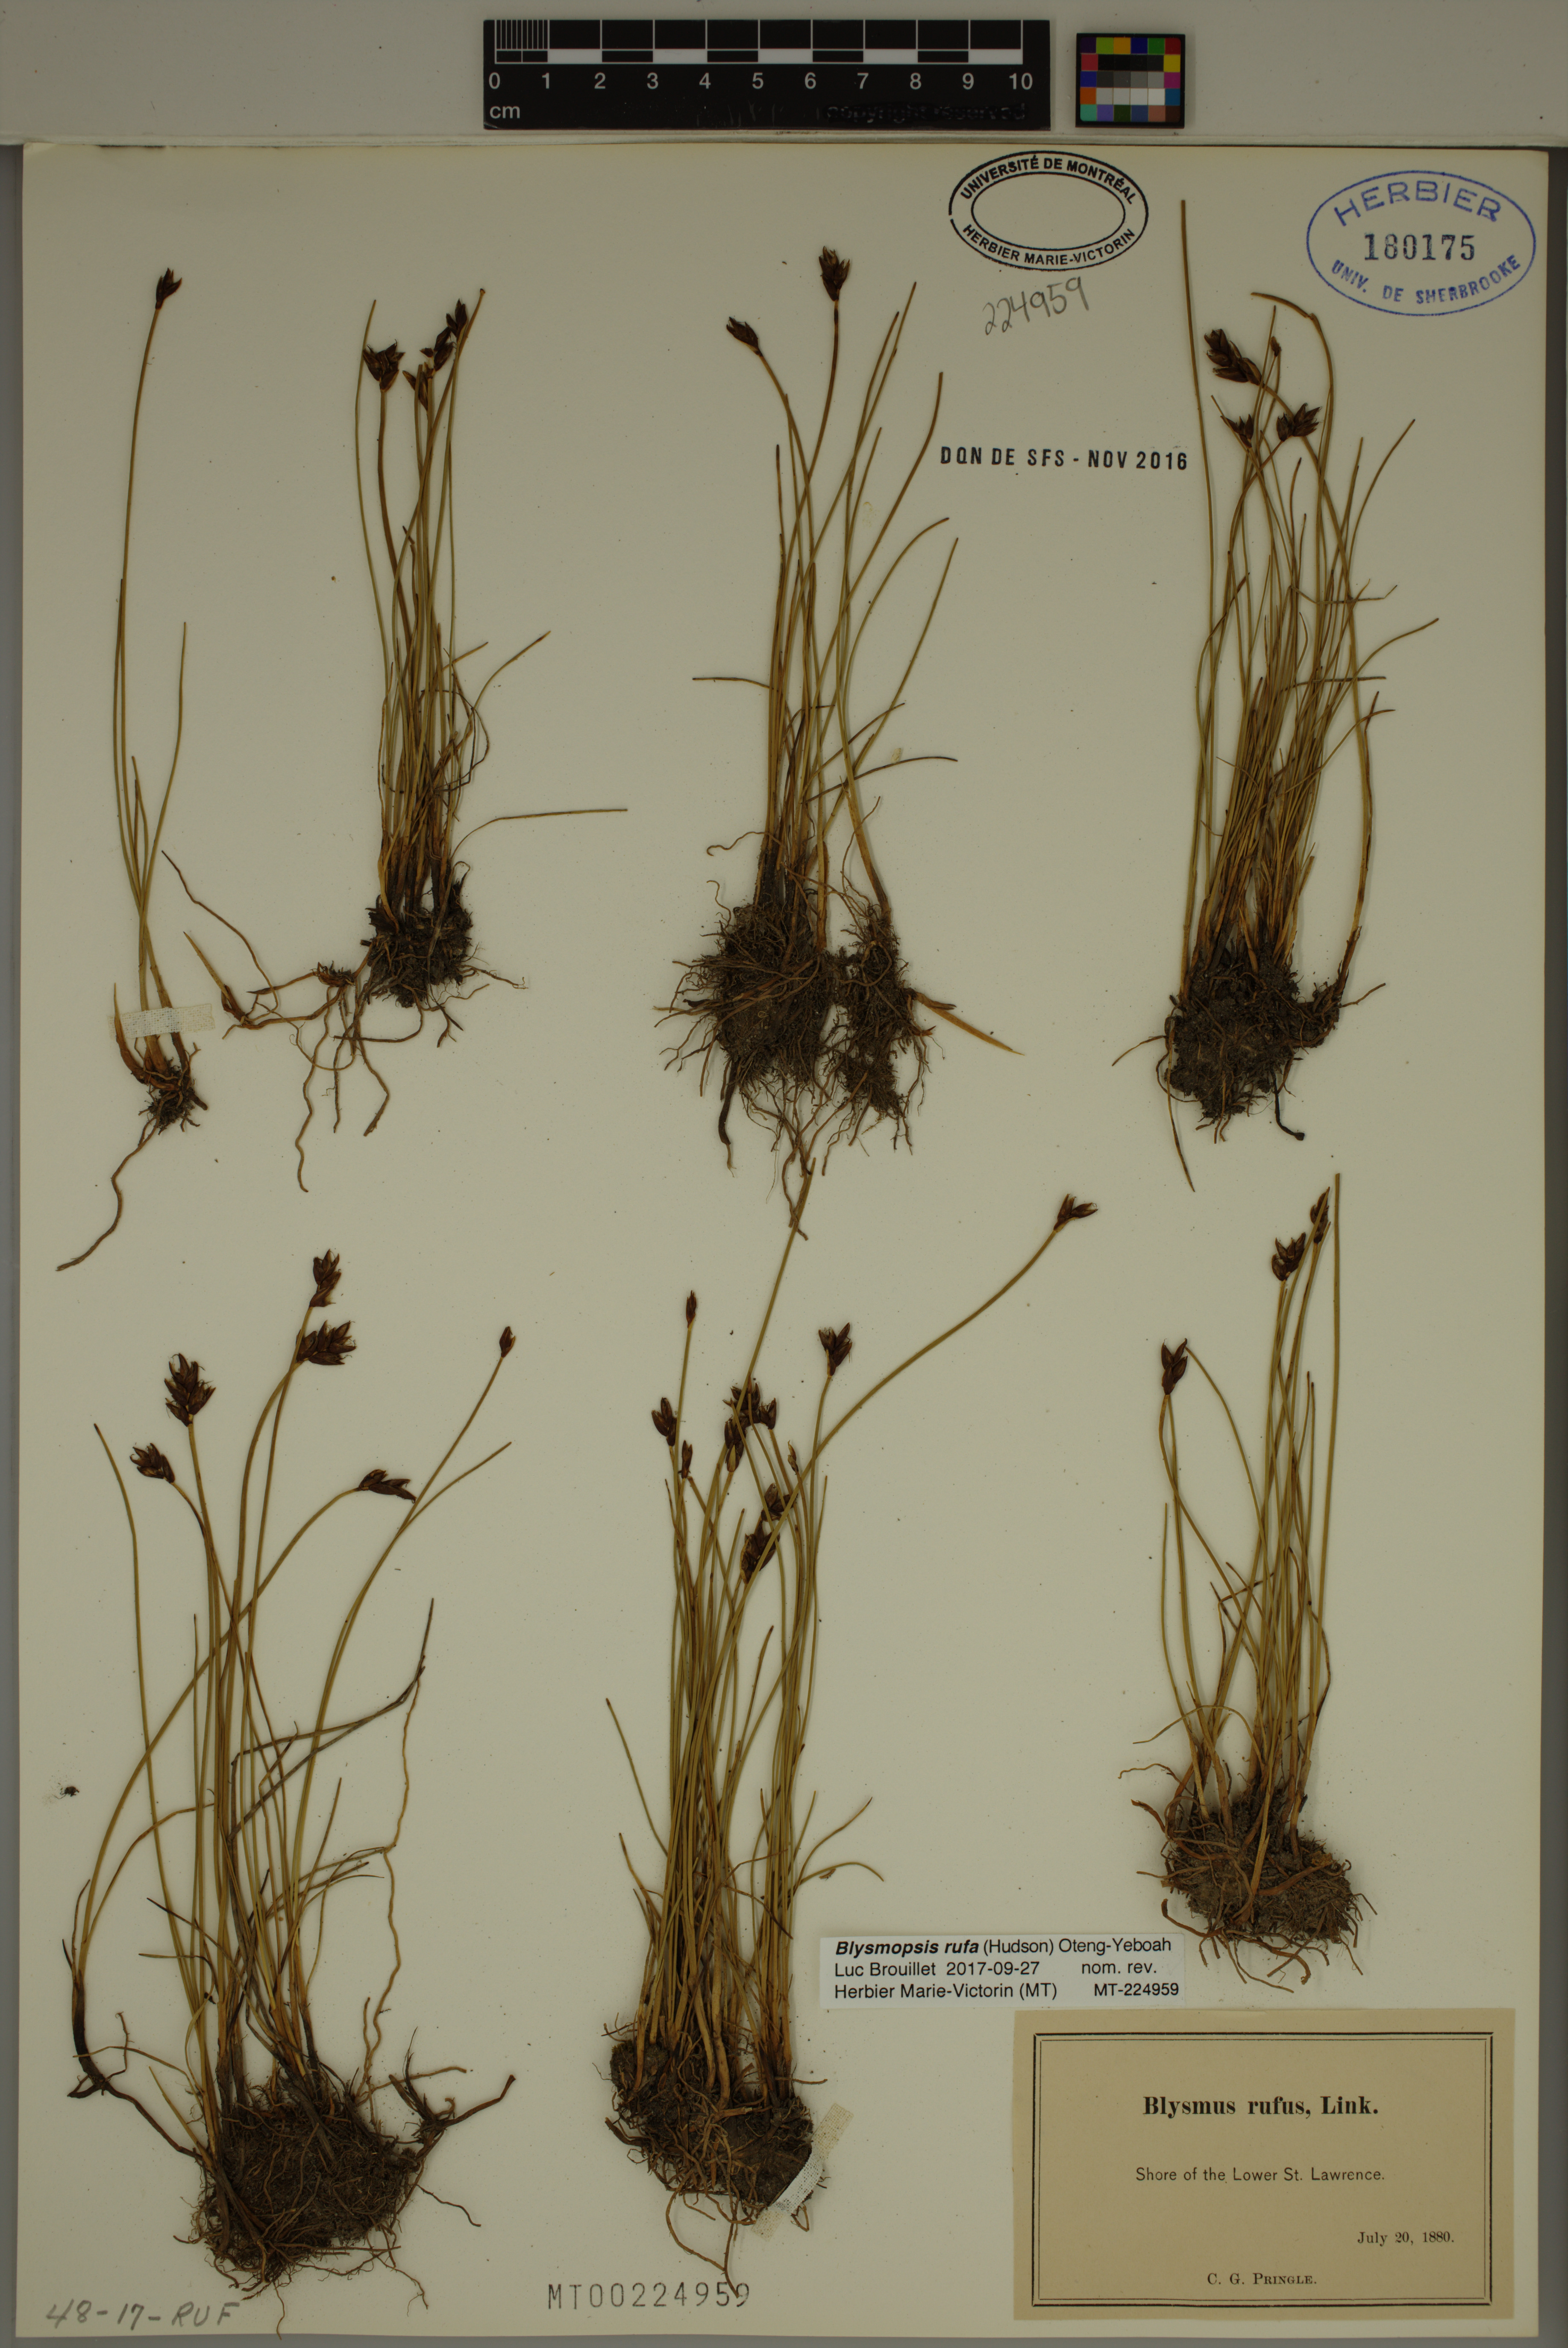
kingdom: Plantae
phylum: Tracheophyta
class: Liliopsida
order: Poales
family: Cyperaceae
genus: Blysmus
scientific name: Blysmus rufus
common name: Saltmarsh flat-sedge
